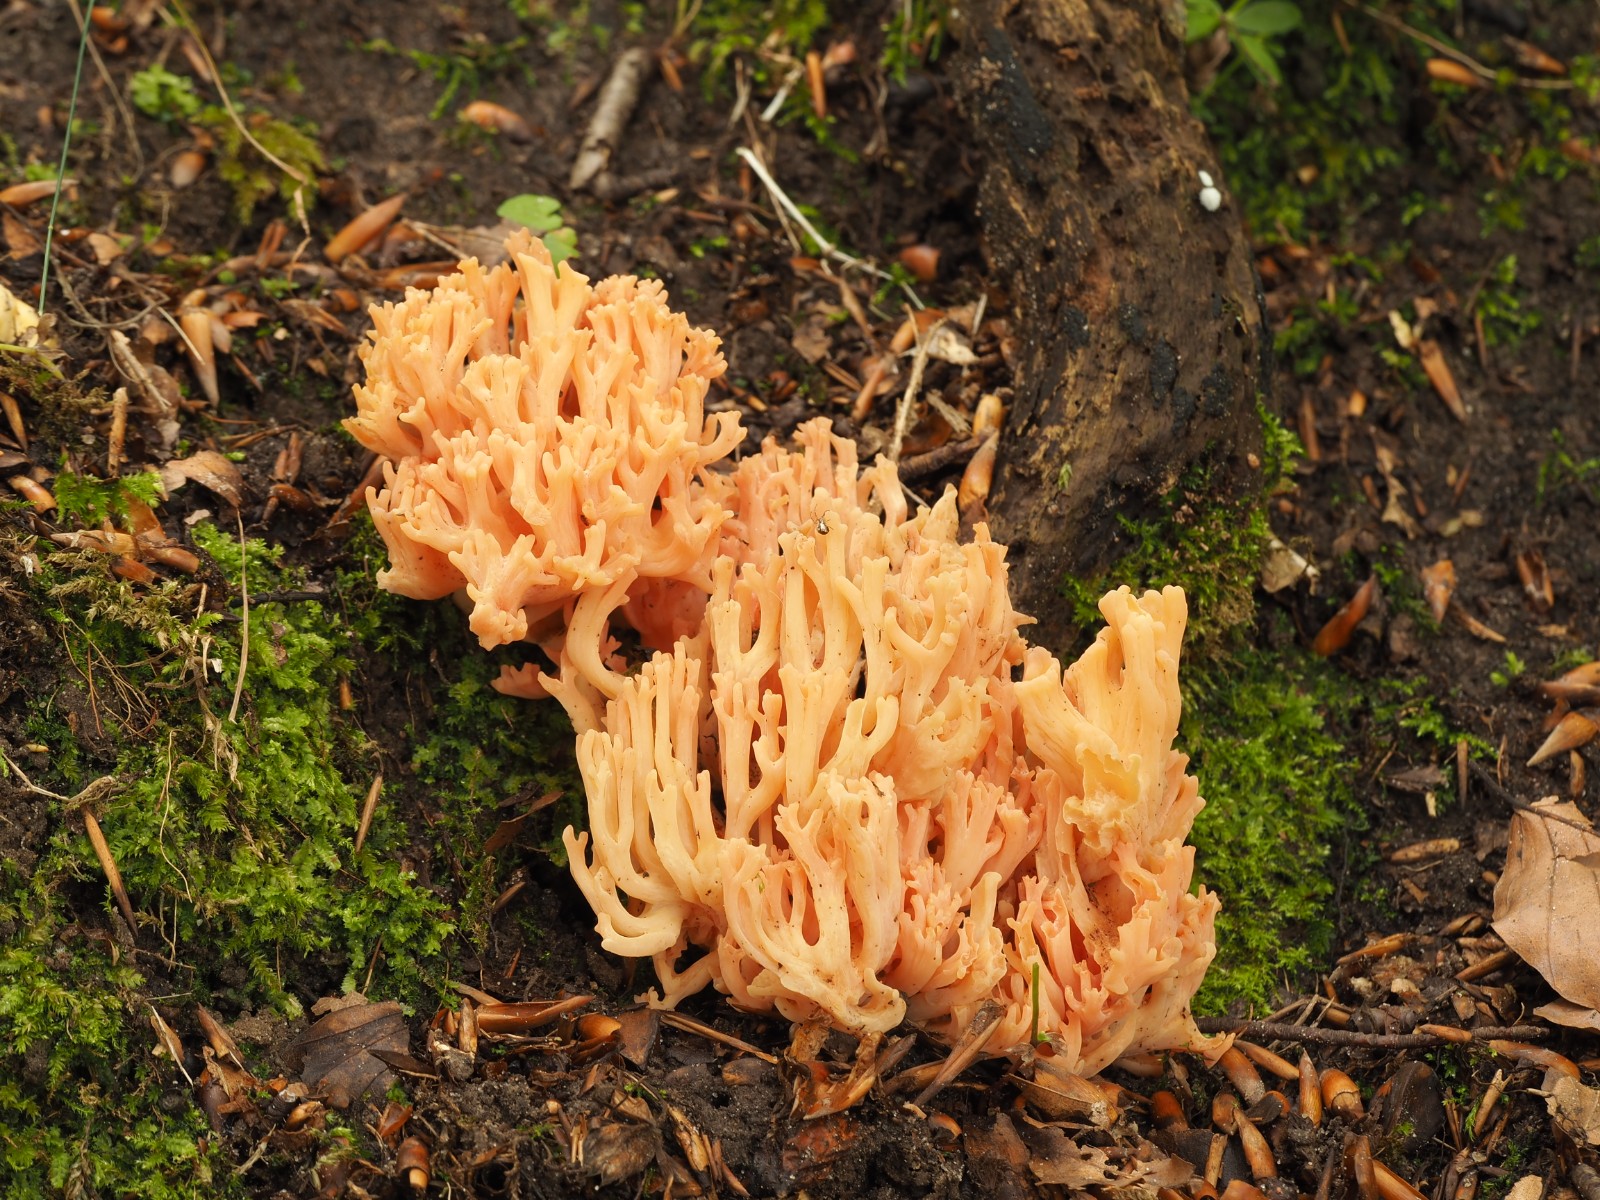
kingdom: Fungi
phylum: Basidiomycota
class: Agaricomycetes
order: Gomphales
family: Gomphaceae
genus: Ramaria
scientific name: Ramaria fagetorum
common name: abrikos-koralsvamp
